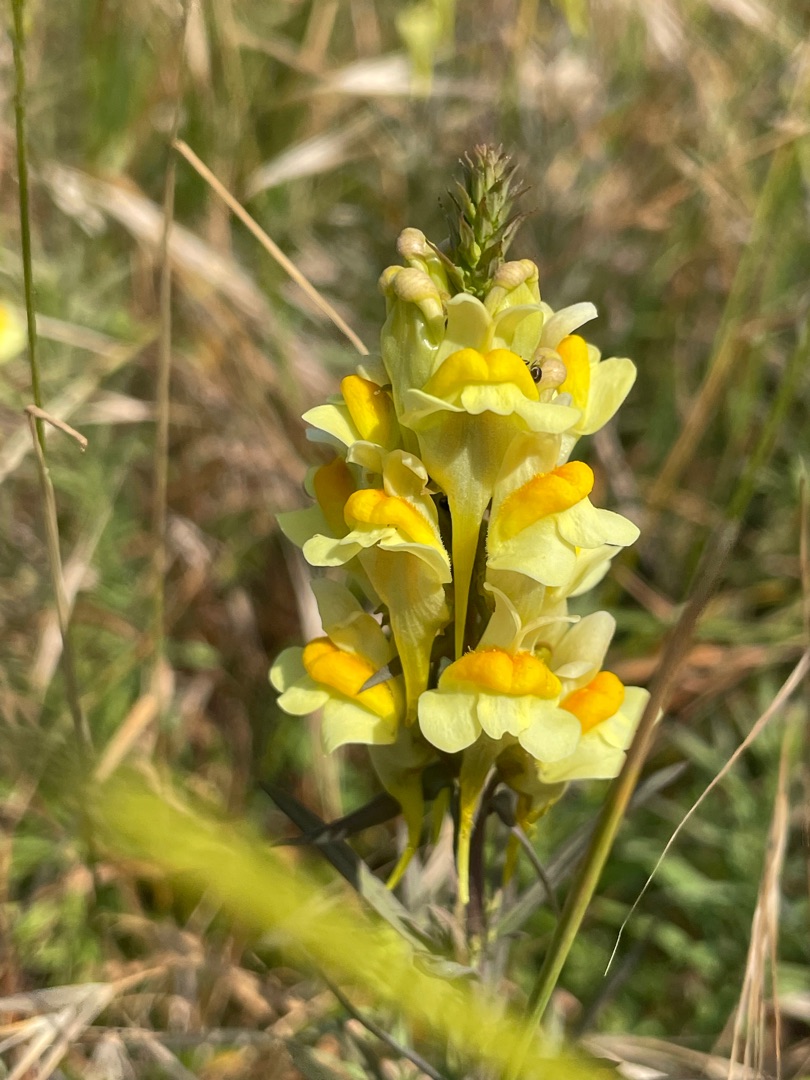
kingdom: Plantae
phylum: Tracheophyta
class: Magnoliopsida
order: Lamiales
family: Plantaginaceae
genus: Linaria
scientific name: Linaria vulgaris
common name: Almindelig torskemund
